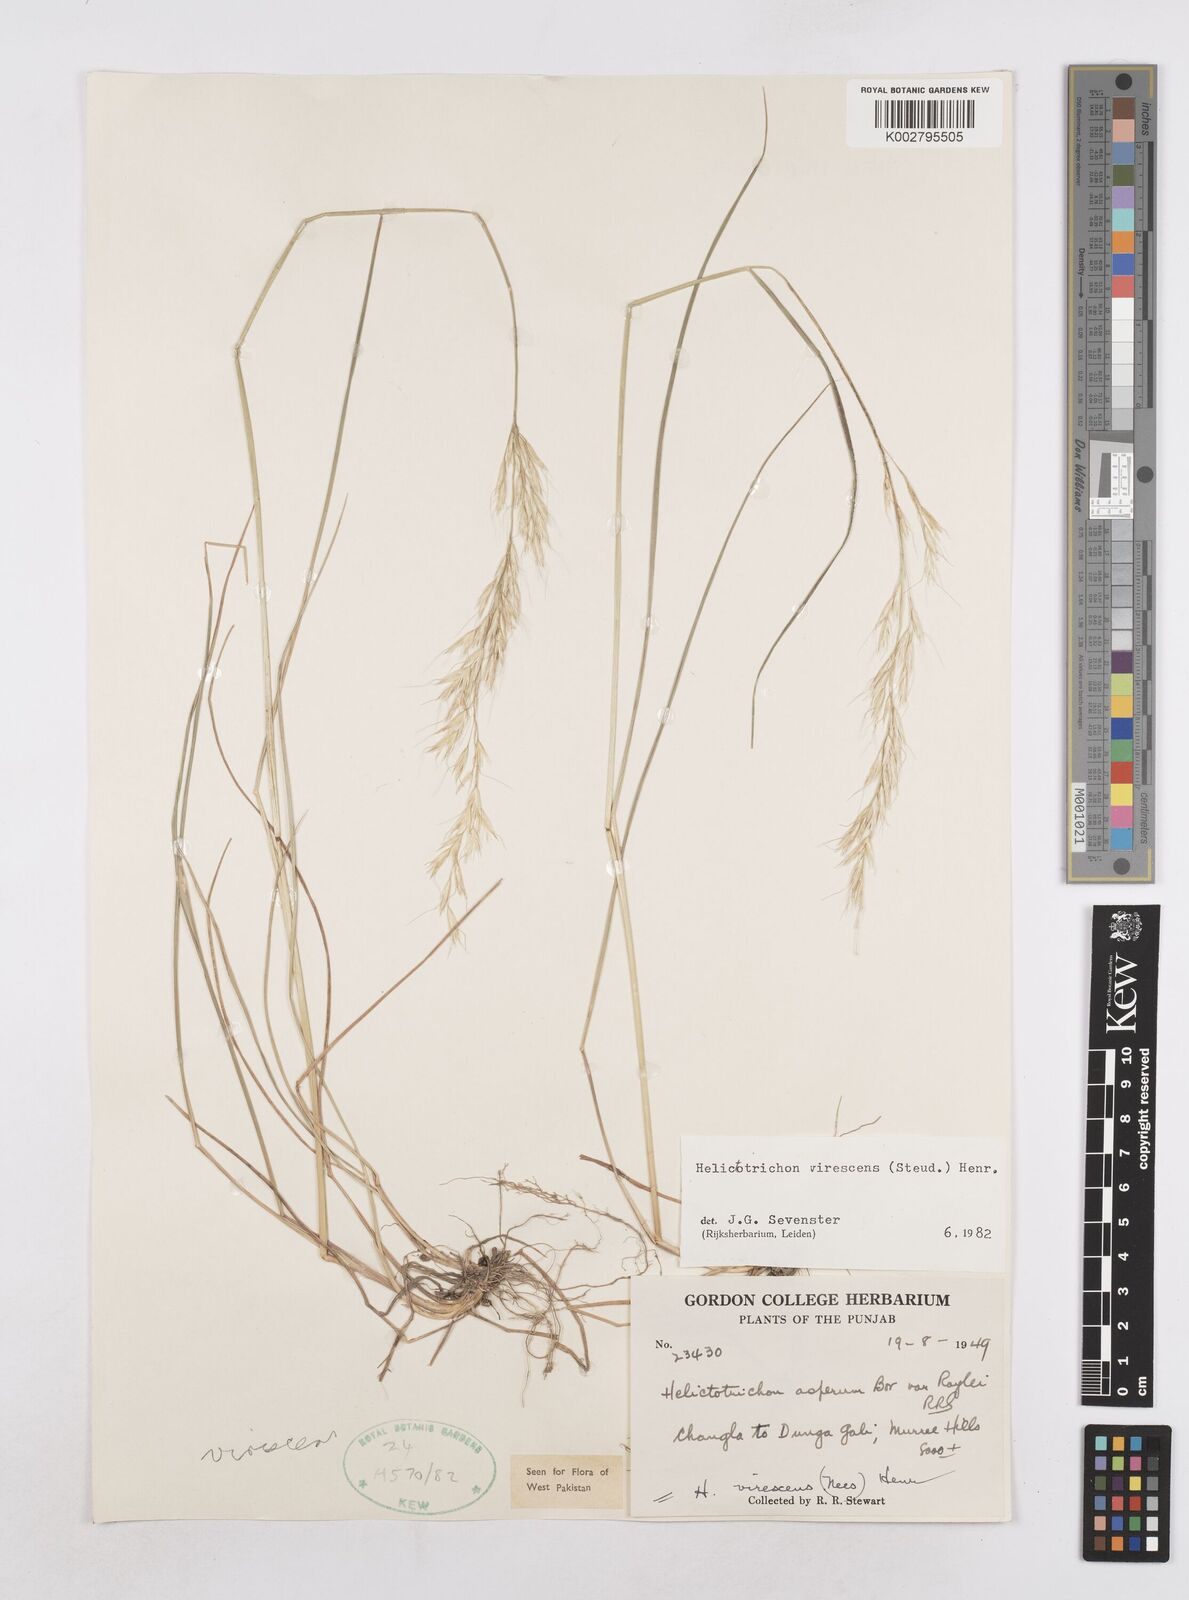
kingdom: Plantae
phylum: Tracheophyta
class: Liliopsida
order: Poales
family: Poaceae
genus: Trisetopsis
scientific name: Trisetopsis junghuhnii
